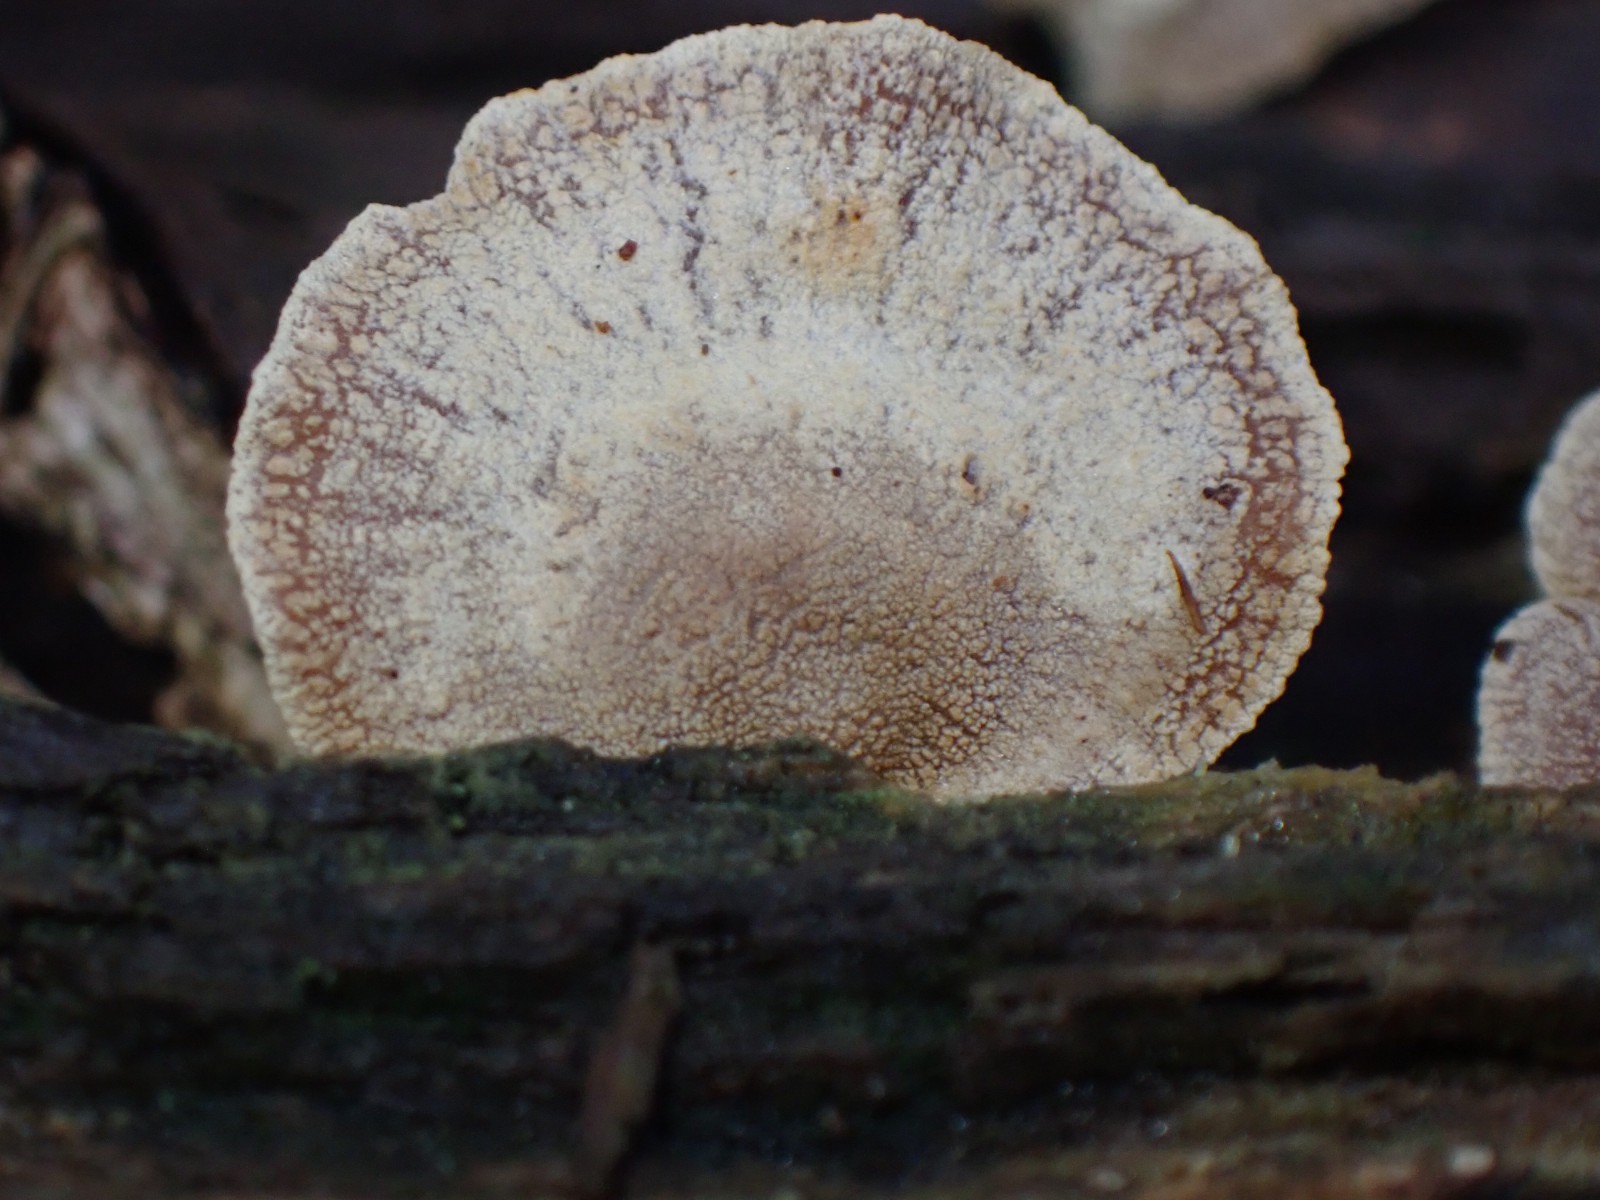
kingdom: Fungi
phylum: Basidiomycota
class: Agaricomycetes
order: Agaricales
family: Mycenaceae
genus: Panellus
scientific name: Panellus stipticus
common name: kliddet epaulethat
